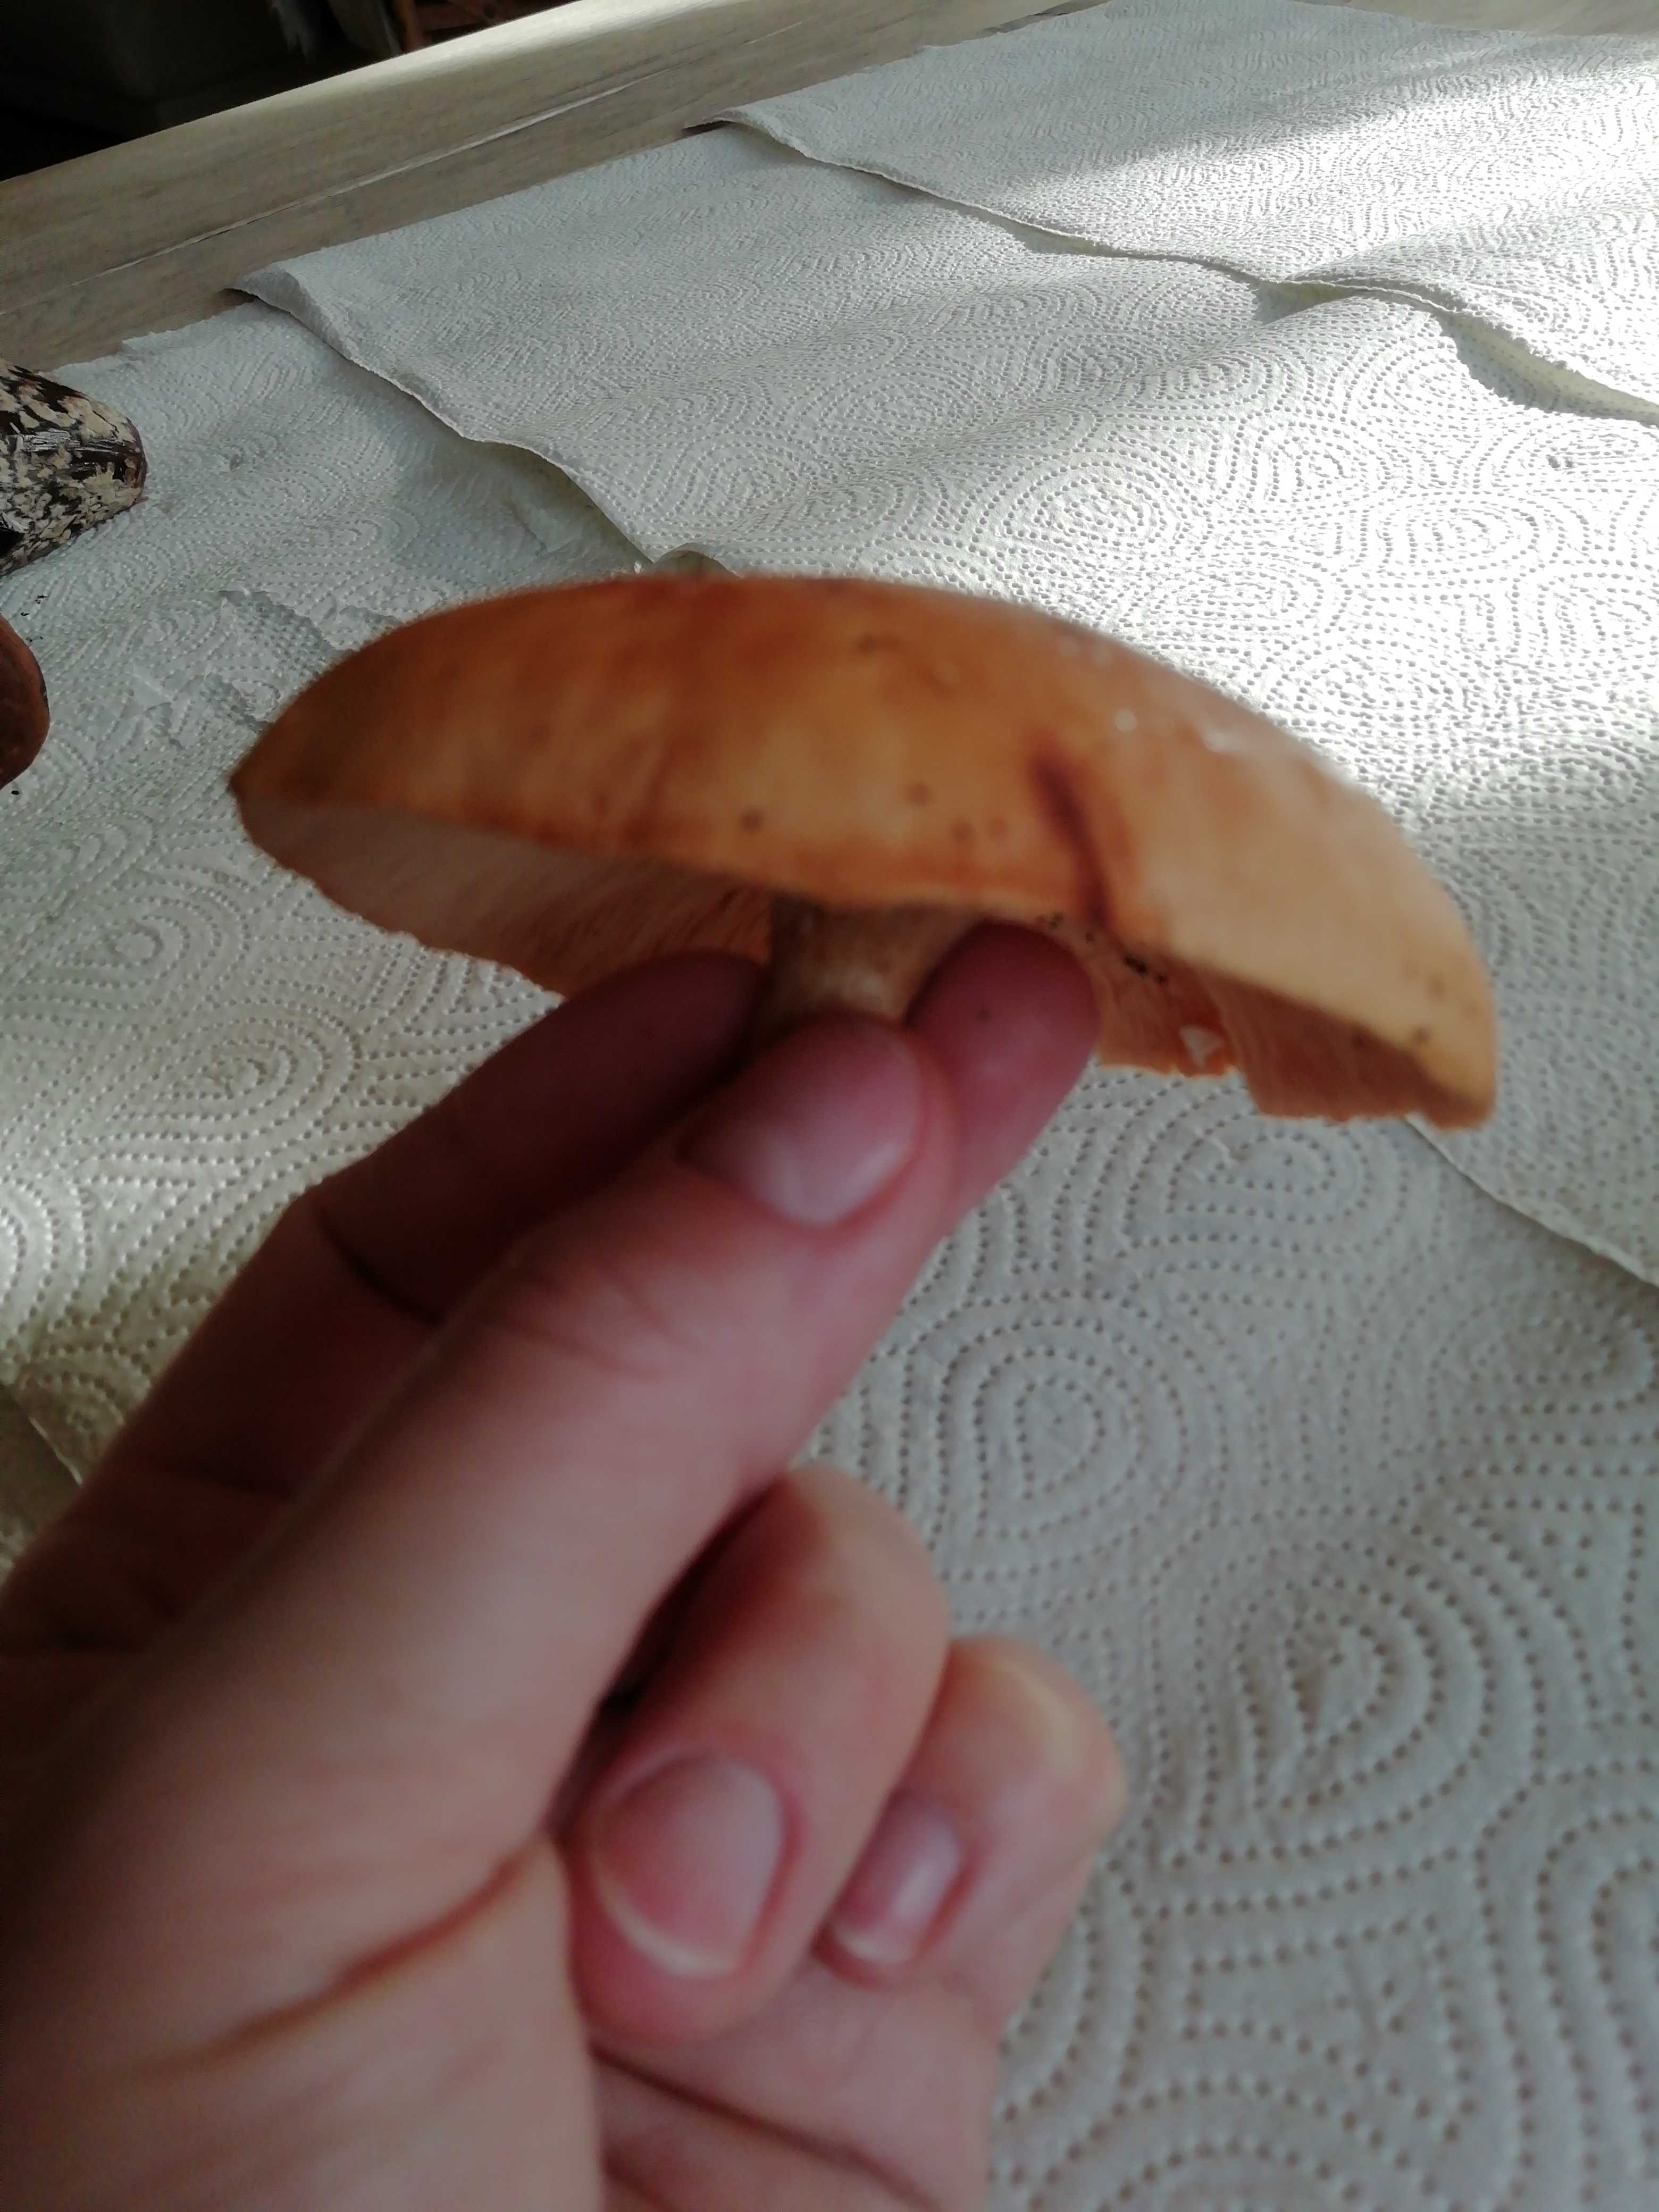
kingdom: Fungi
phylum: Basidiomycota
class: Agaricomycetes
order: Agaricales
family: Tricholomataceae
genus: Paralepista
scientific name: Paralepista flaccida
